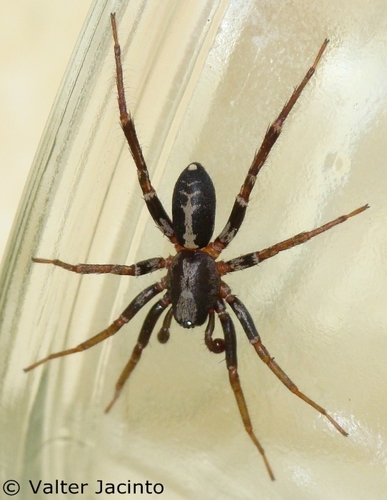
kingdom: Animalia
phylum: Arthropoda
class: Arachnida
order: Araneae
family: Corinnidae
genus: Castianeira
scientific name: Castianeira badia
